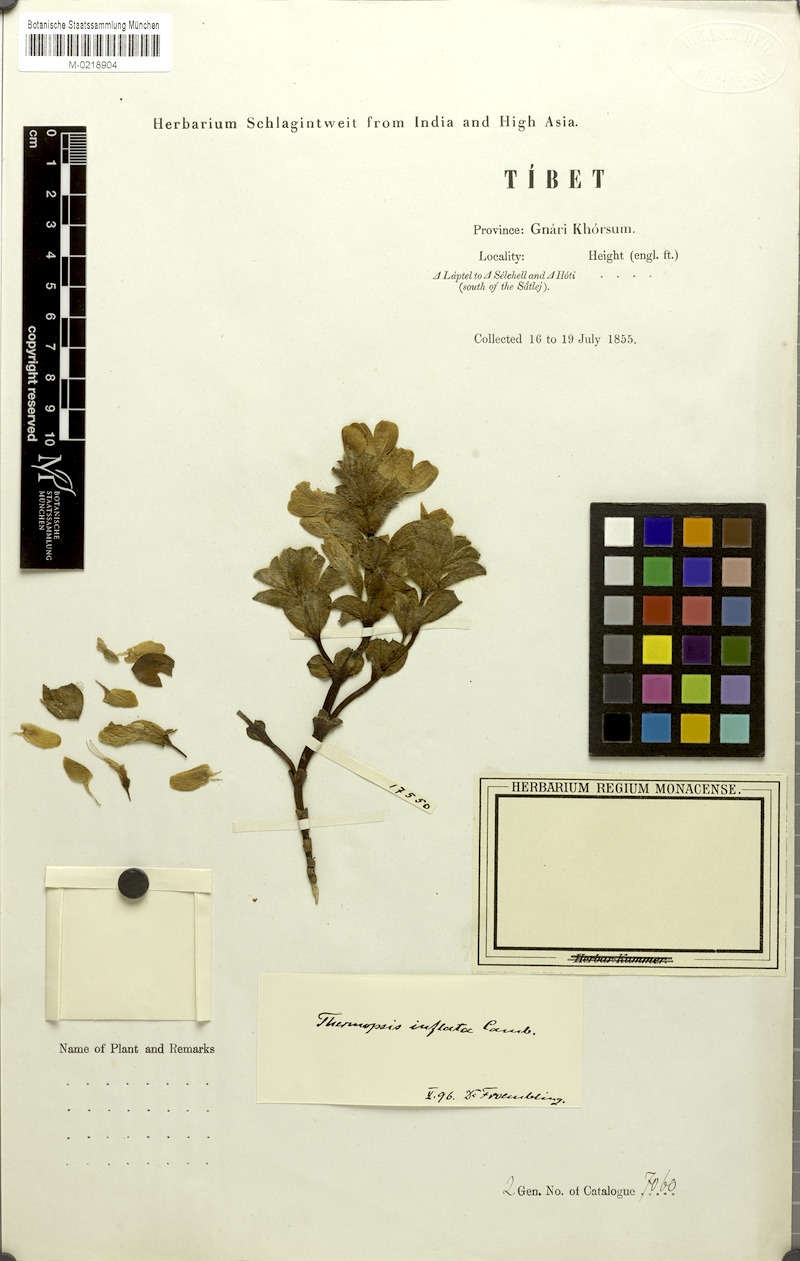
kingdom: Plantae
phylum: Tracheophyta
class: Magnoliopsida
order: Fabales
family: Fabaceae
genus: Thermopsis
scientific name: Thermopsis inflata
